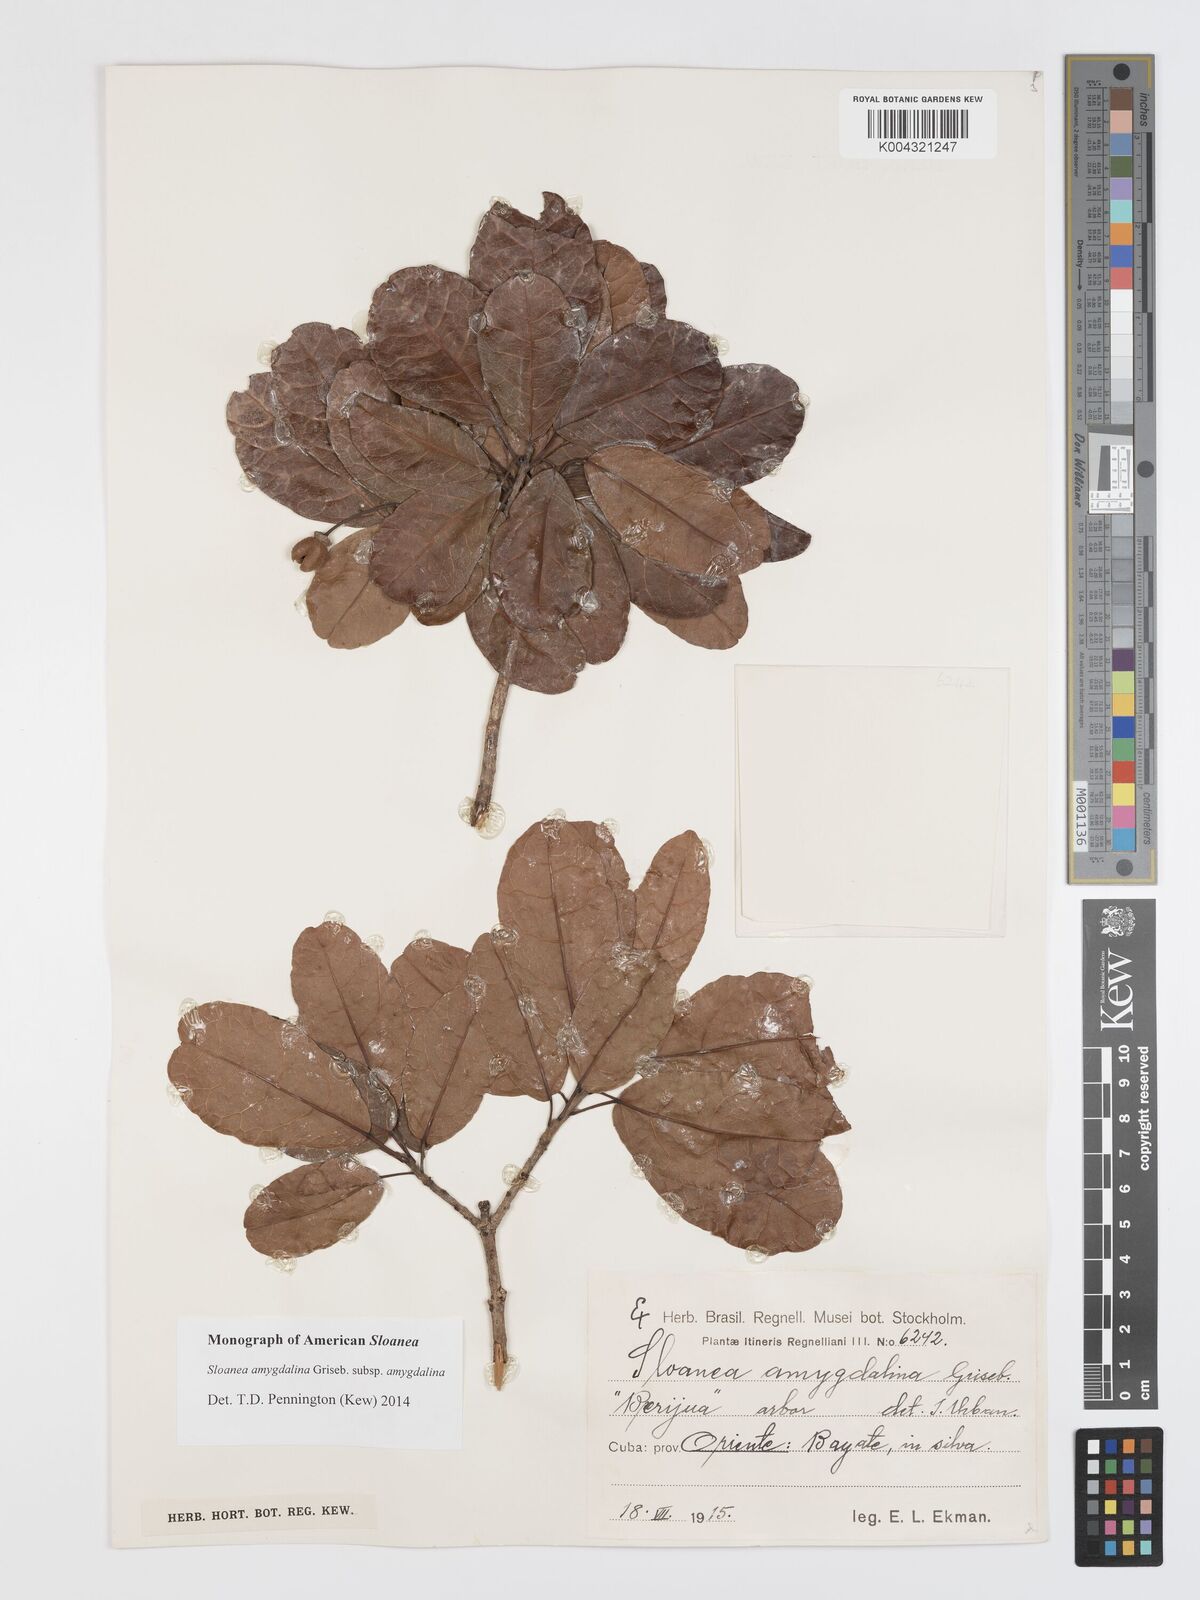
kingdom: Plantae
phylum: Tracheophyta
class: Magnoliopsida
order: Oxalidales
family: Elaeocarpaceae
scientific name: Elaeocarpaceae
